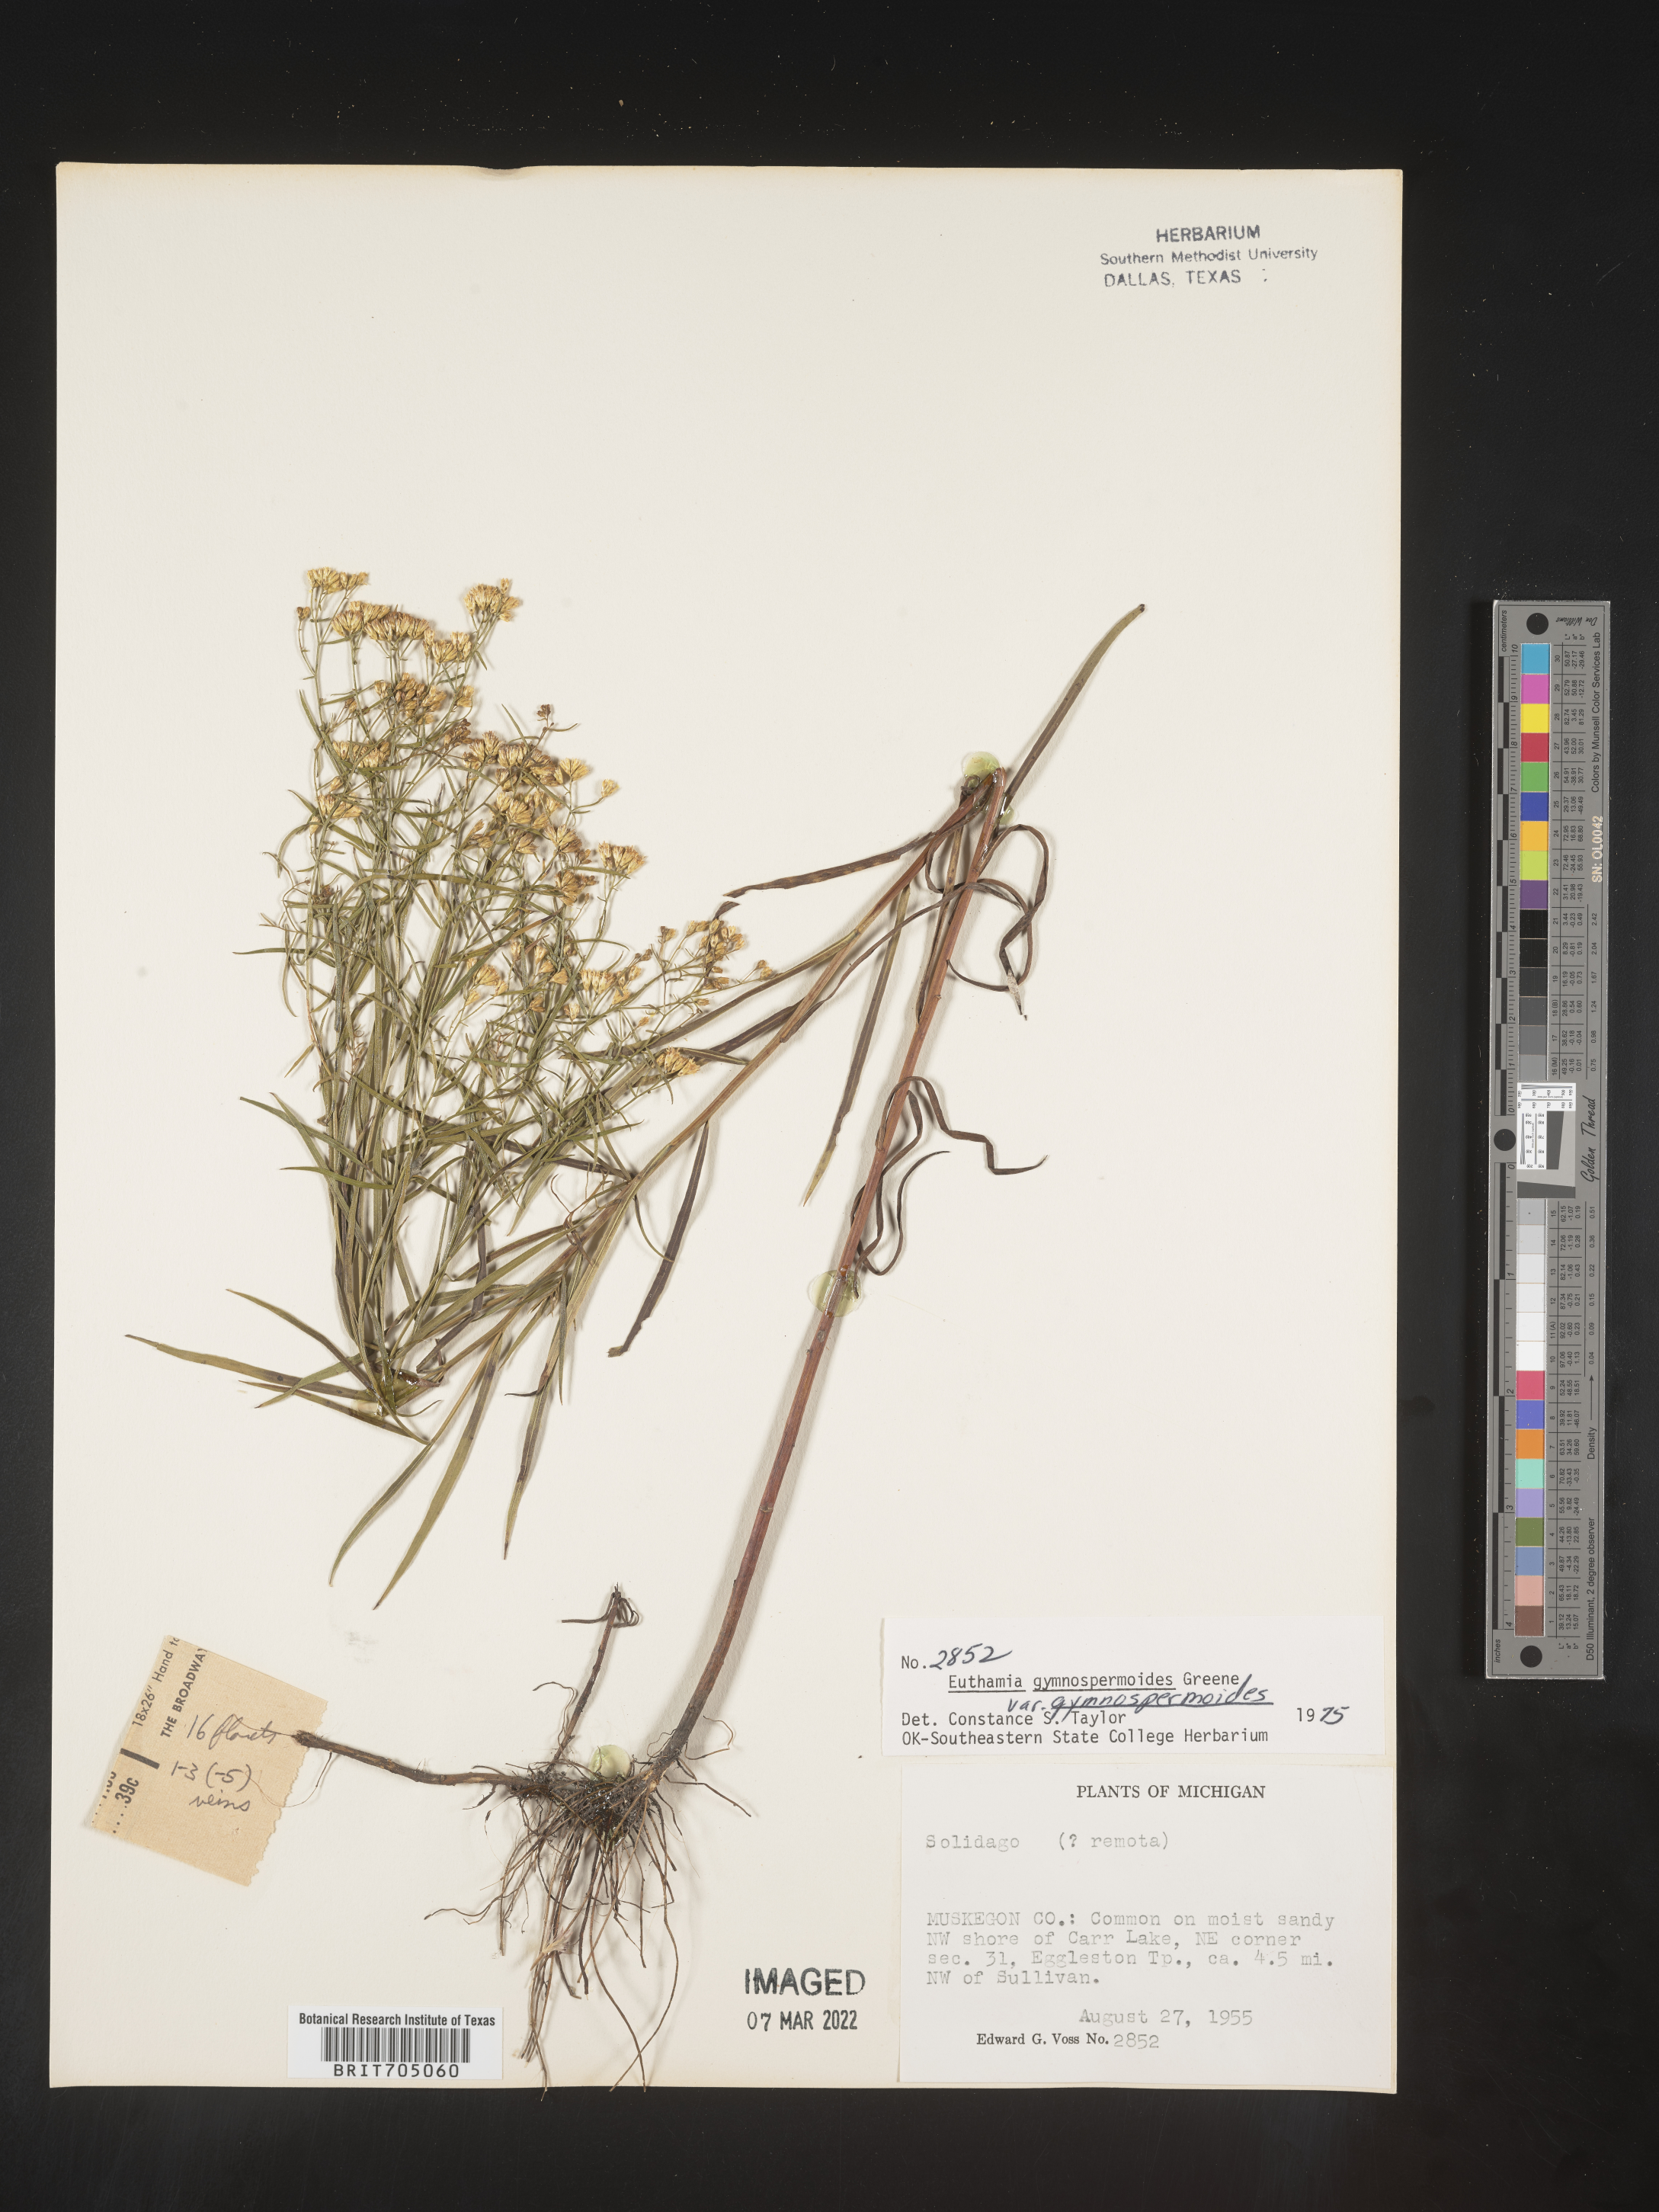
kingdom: Plantae
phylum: Tracheophyta
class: Magnoliopsida
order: Asterales
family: Asteraceae
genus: Euthamia
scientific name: Euthamia gymnospermoides
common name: Great plains goldentop
